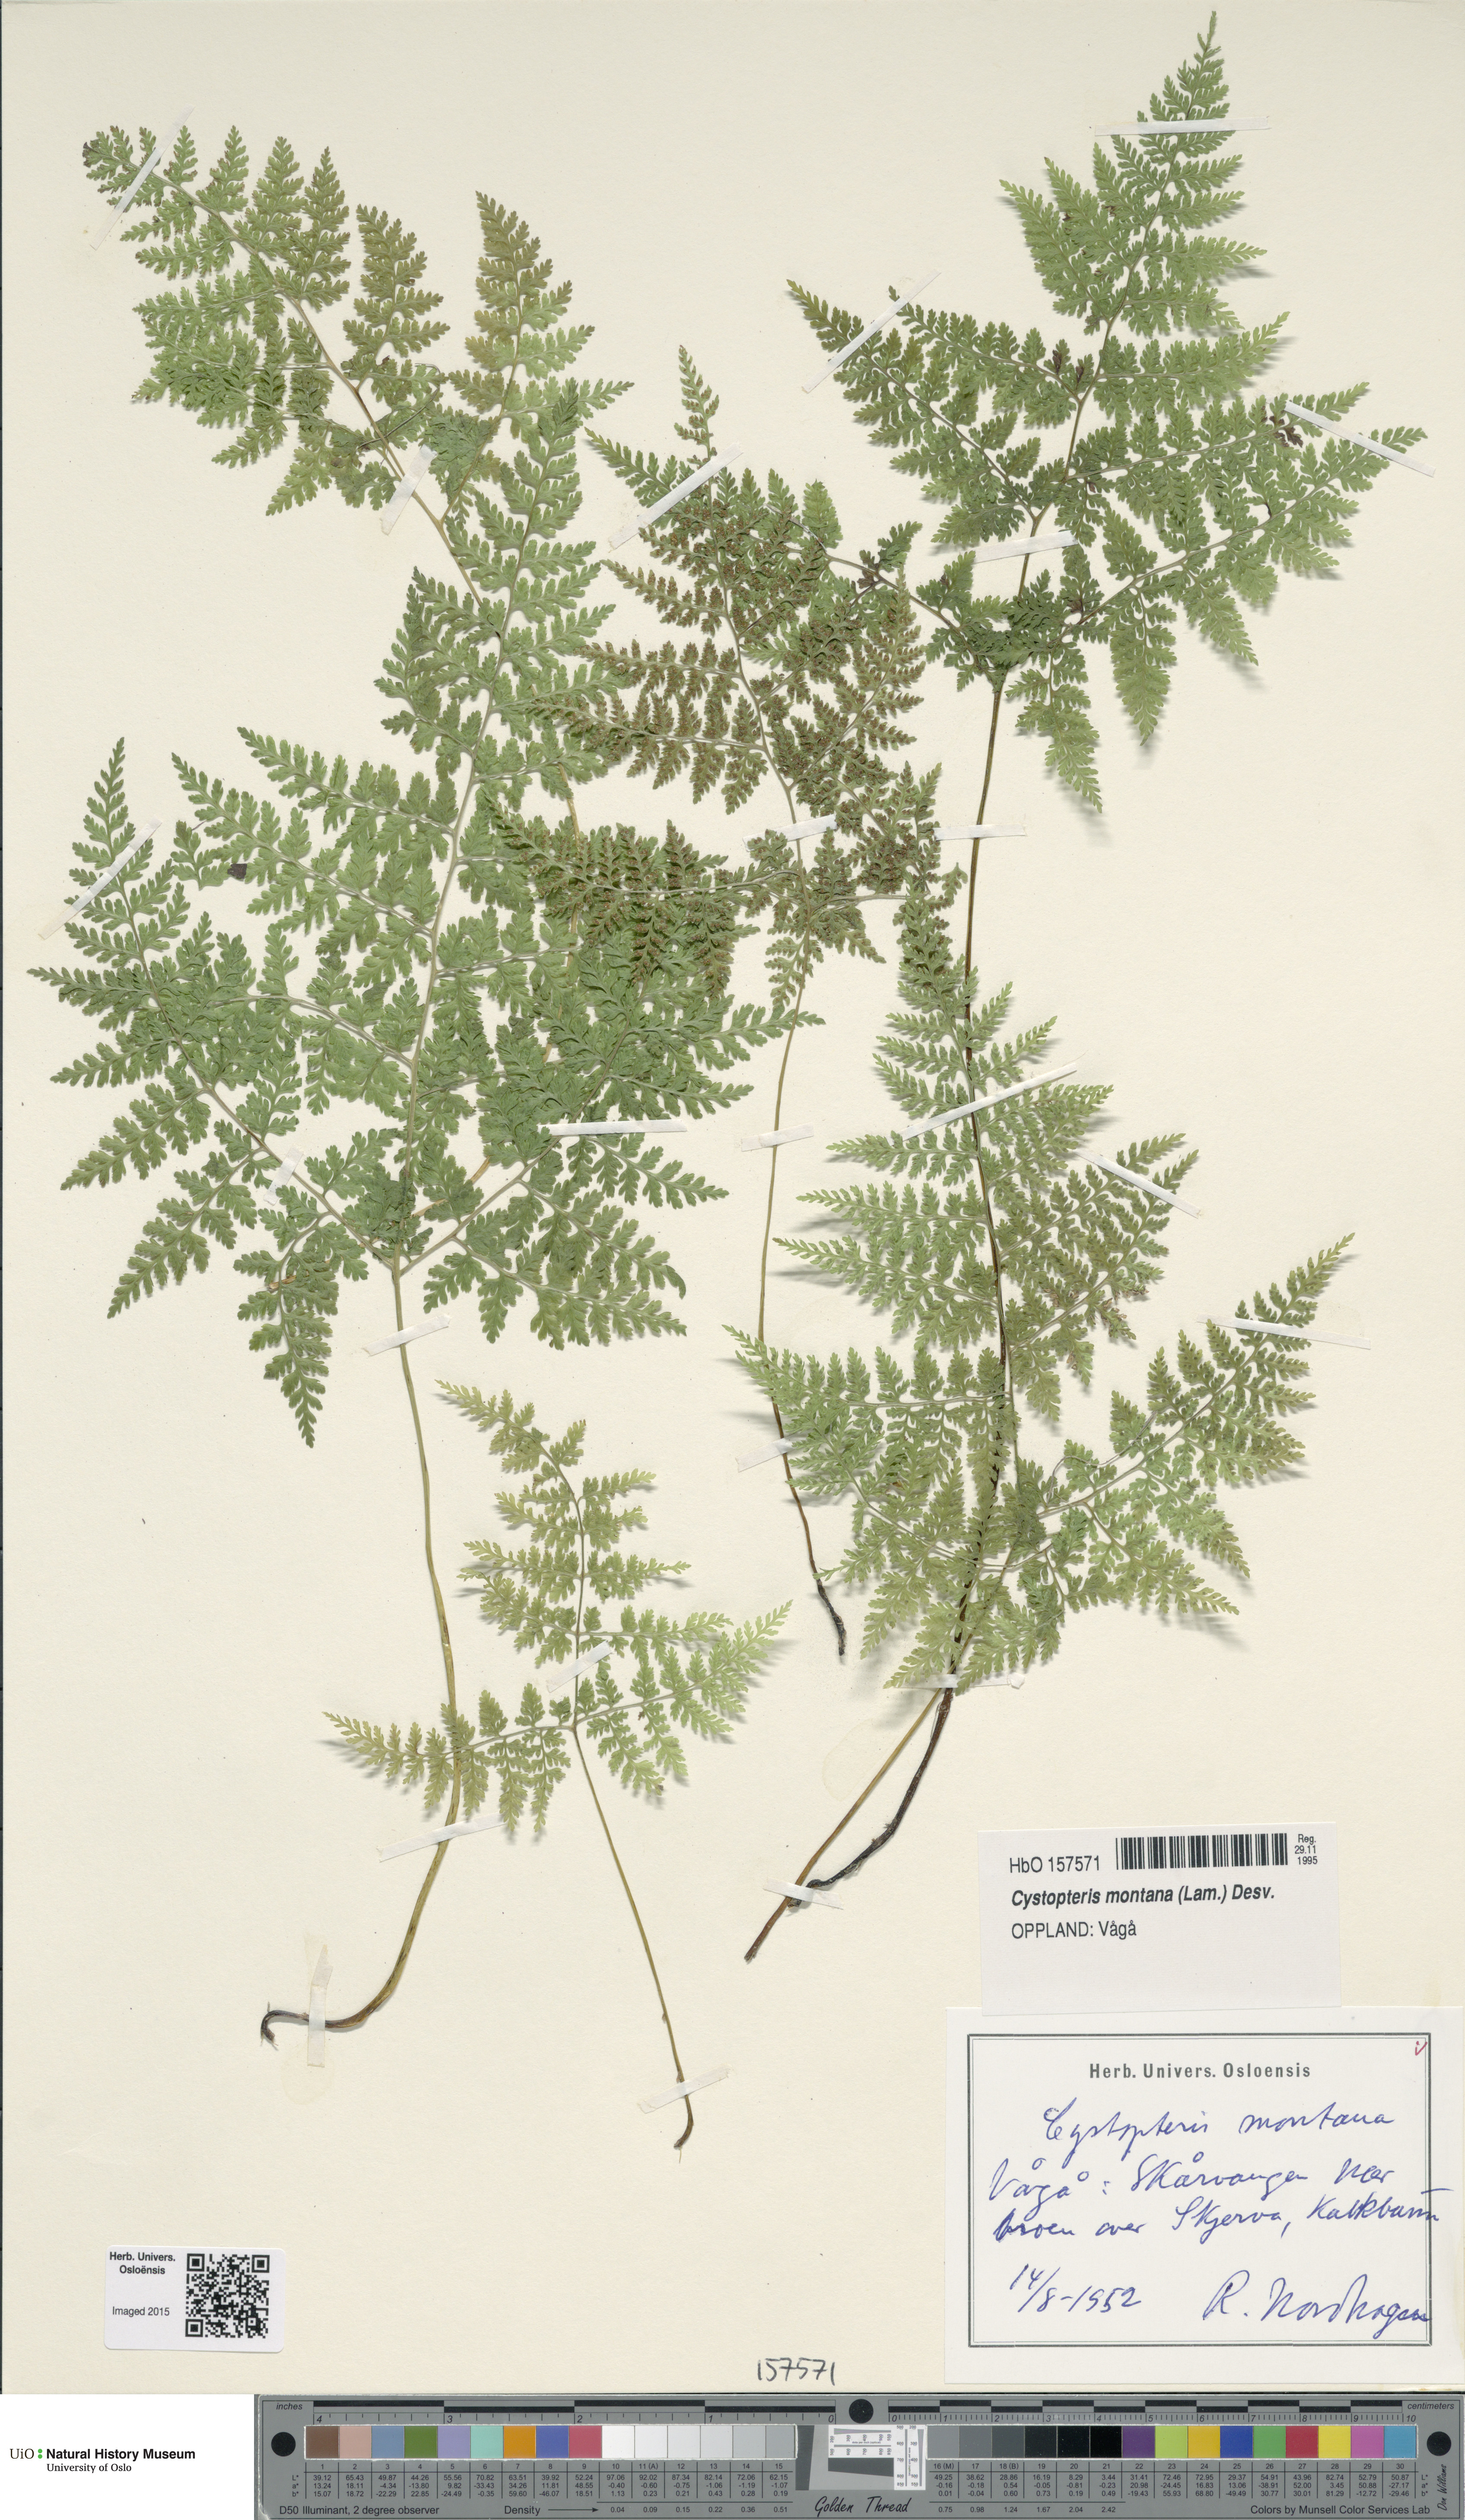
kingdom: Plantae
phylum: Tracheophyta
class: Polypodiopsida
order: Polypodiales
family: Cystopteridaceae
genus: Cystopteris
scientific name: Cystopteris montana
